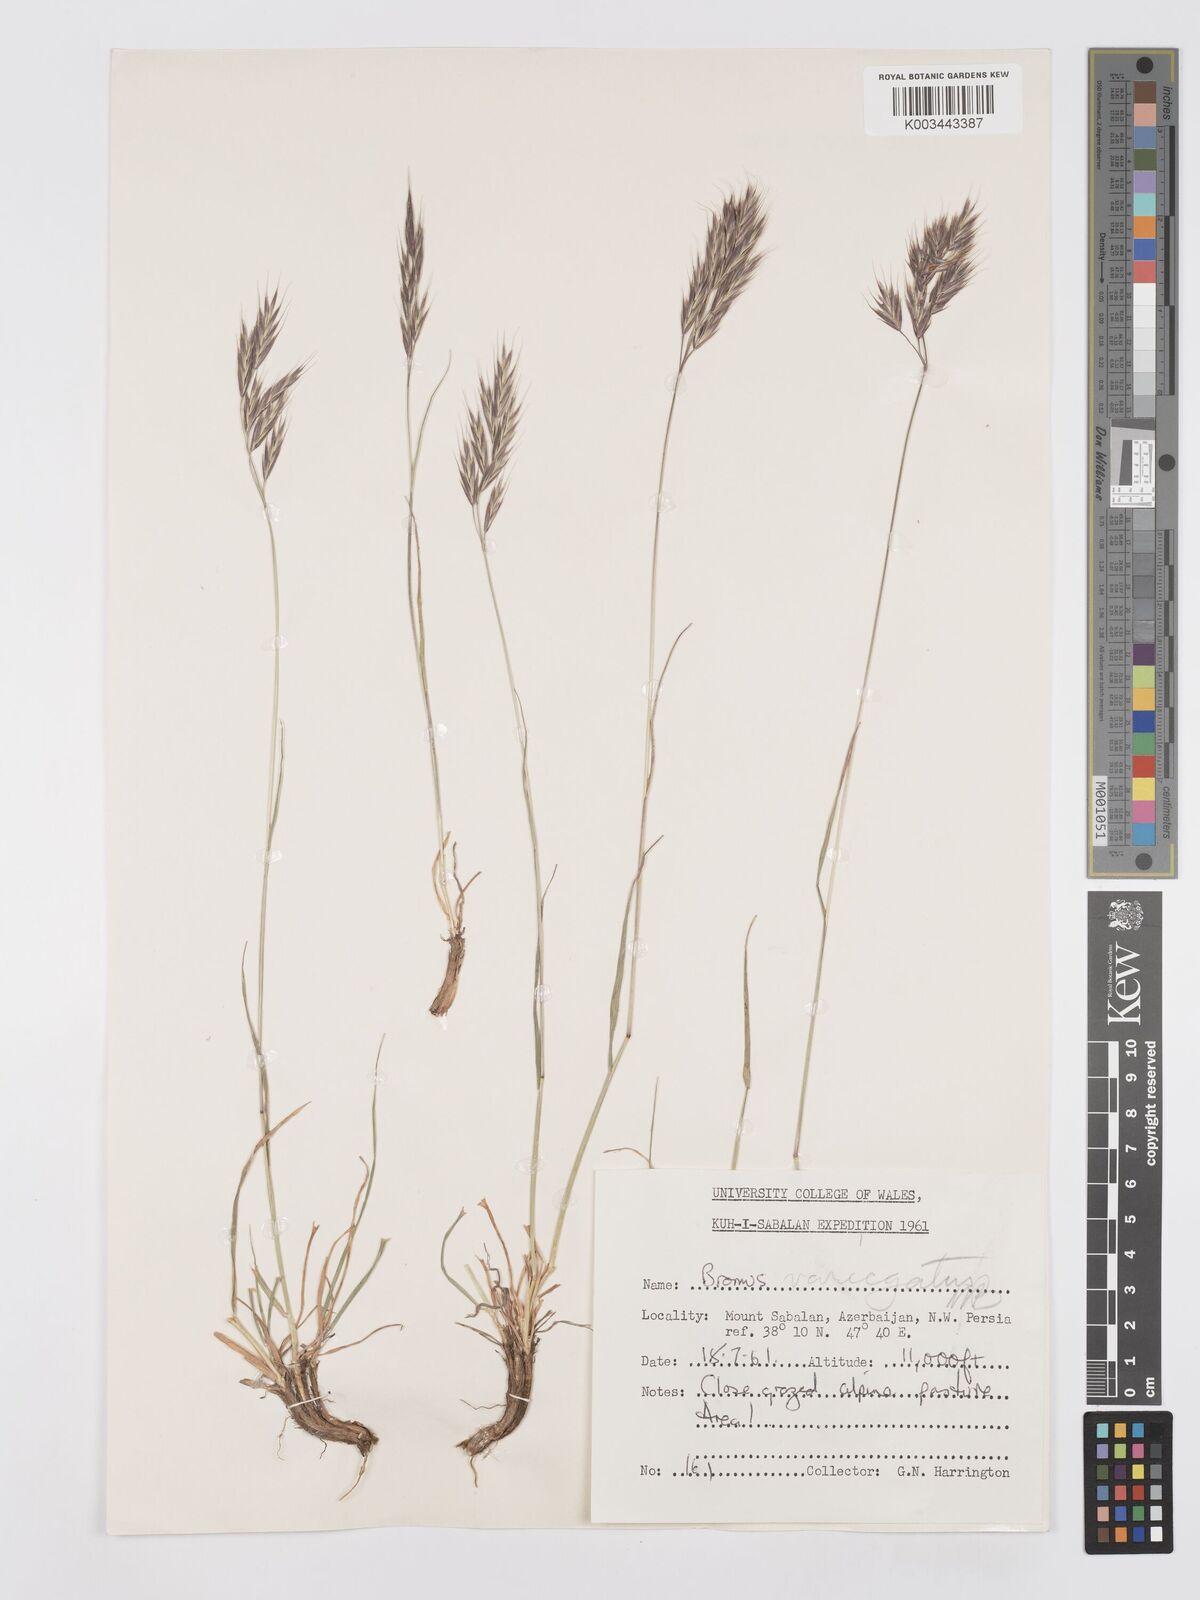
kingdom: Plantae
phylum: Tracheophyta
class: Liliopsida
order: Poales
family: Poaceae
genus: Bromus
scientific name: Bromus variegatus
